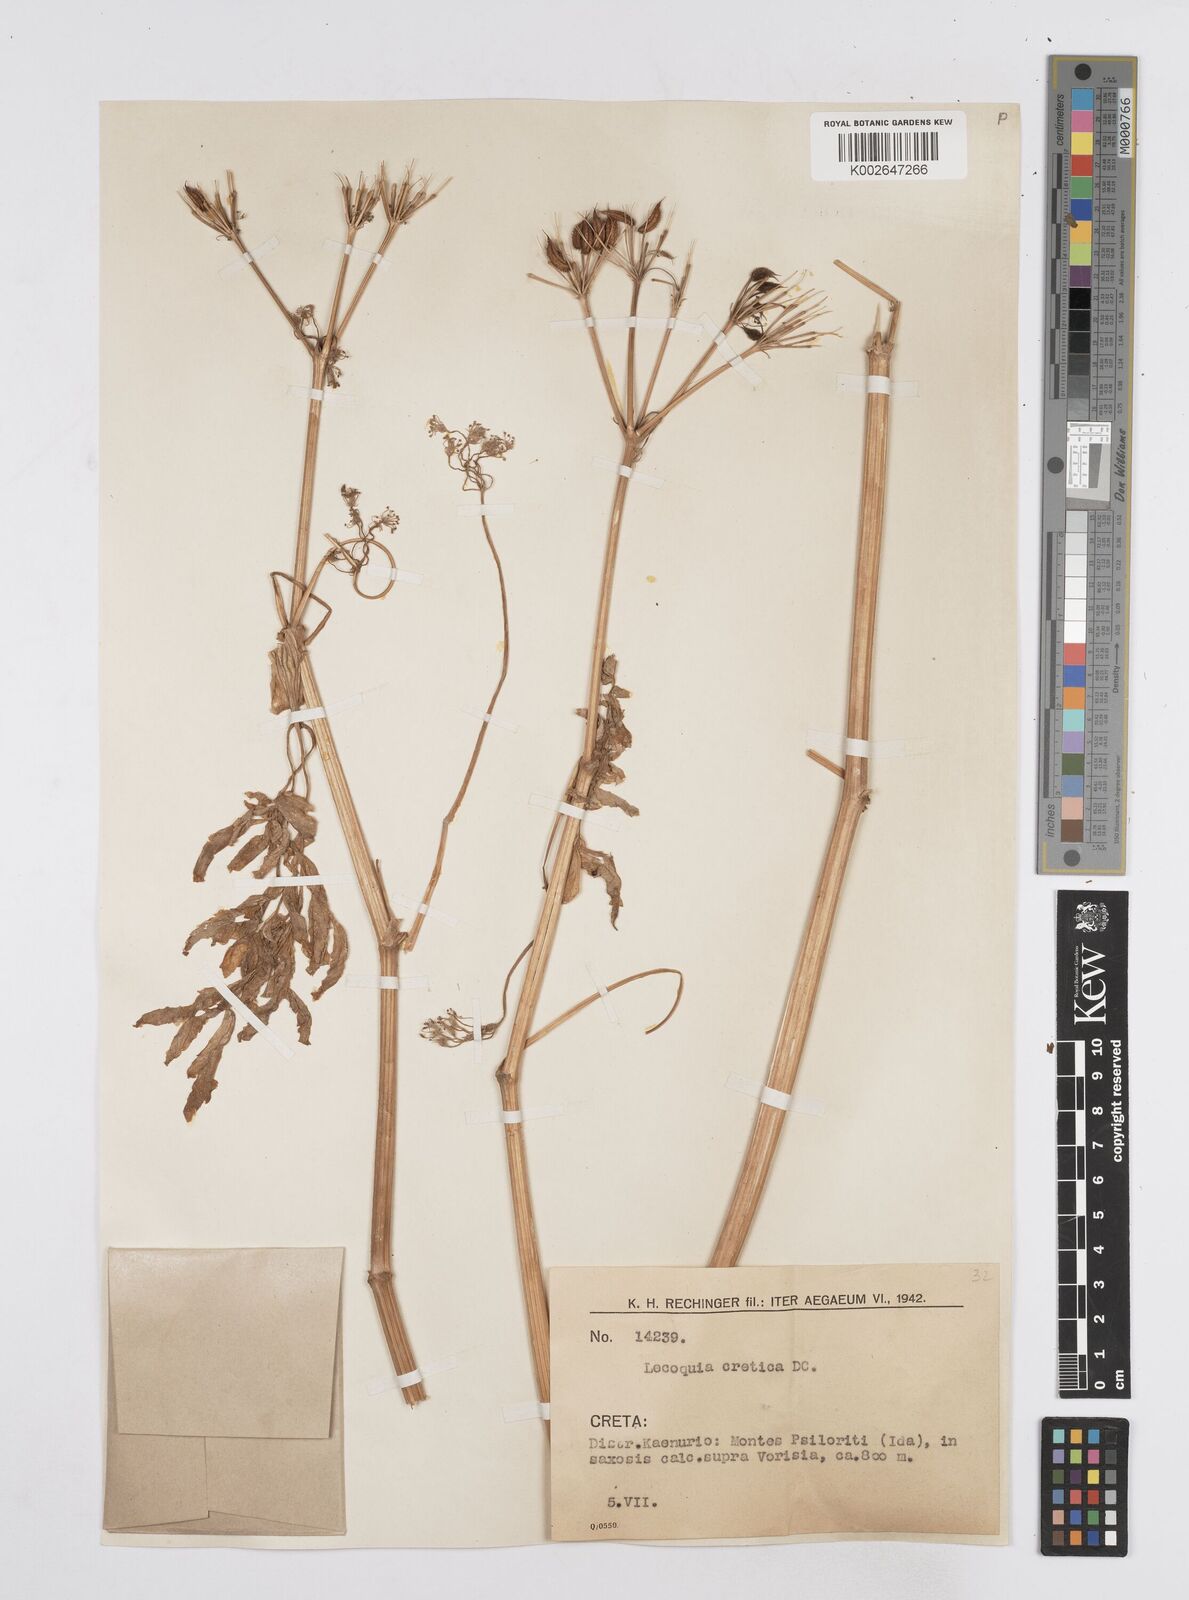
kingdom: Plantae
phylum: Tracheophyta
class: Magnoliopsida
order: Apiales
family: Apiaceae
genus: Lecokia
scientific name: Lecokia
